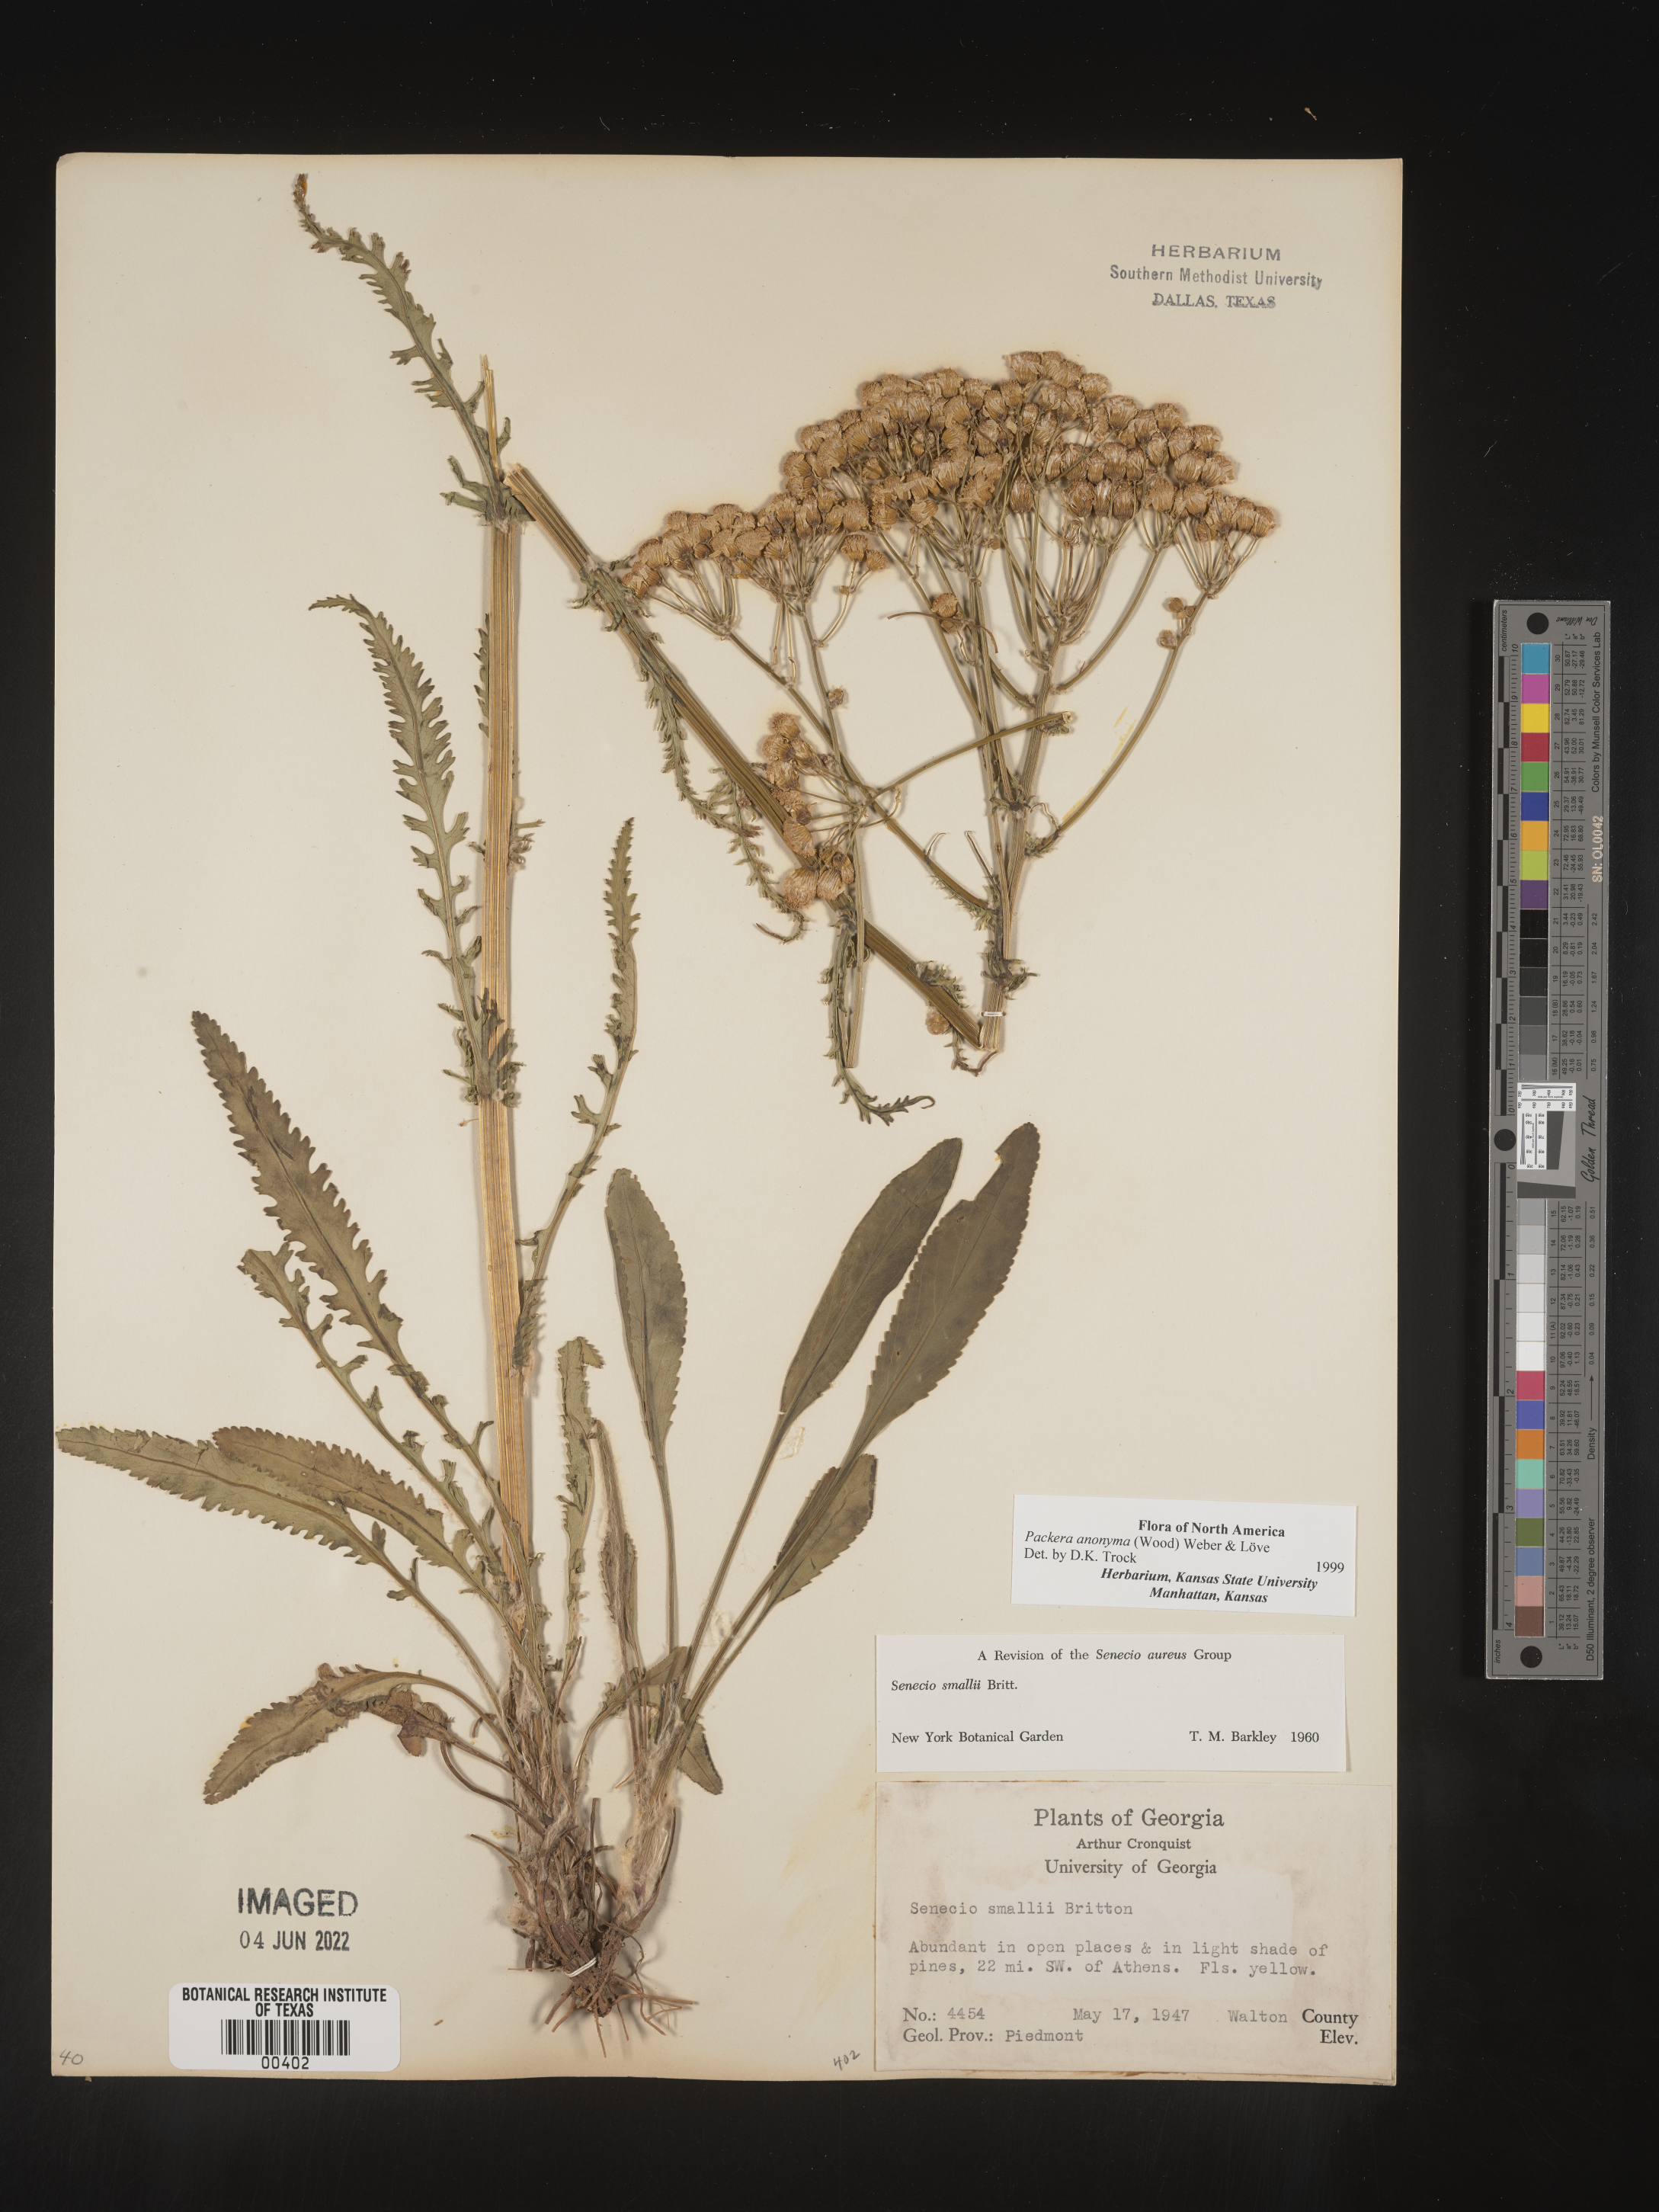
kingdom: Plantae
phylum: Tracheophyta
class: Magnoliopsida
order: Asterales
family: Asteraceae
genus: Packera
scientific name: Packera anonyma
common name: Small ragwort
